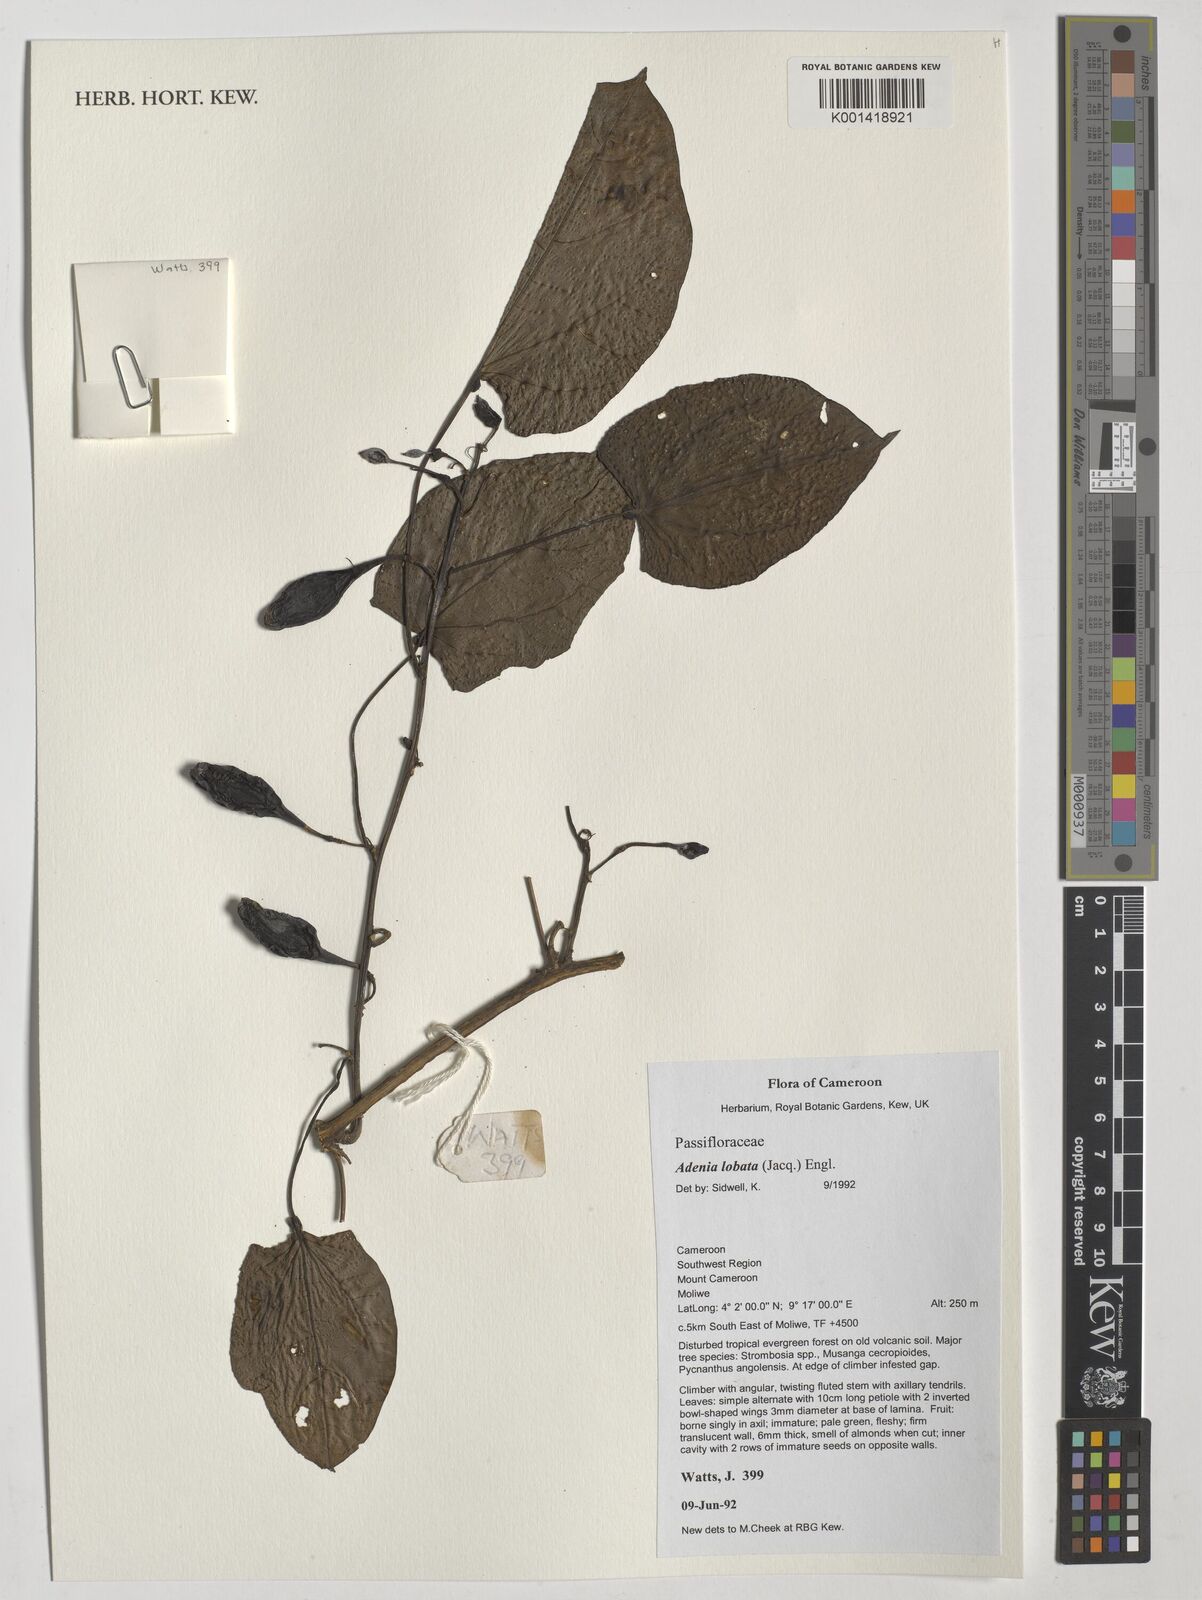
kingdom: Plantae
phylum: Tracheophyta
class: Magnoliopsida
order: Malpighiales
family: Passifloraceae
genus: Adenia
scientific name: Adenia lobata
